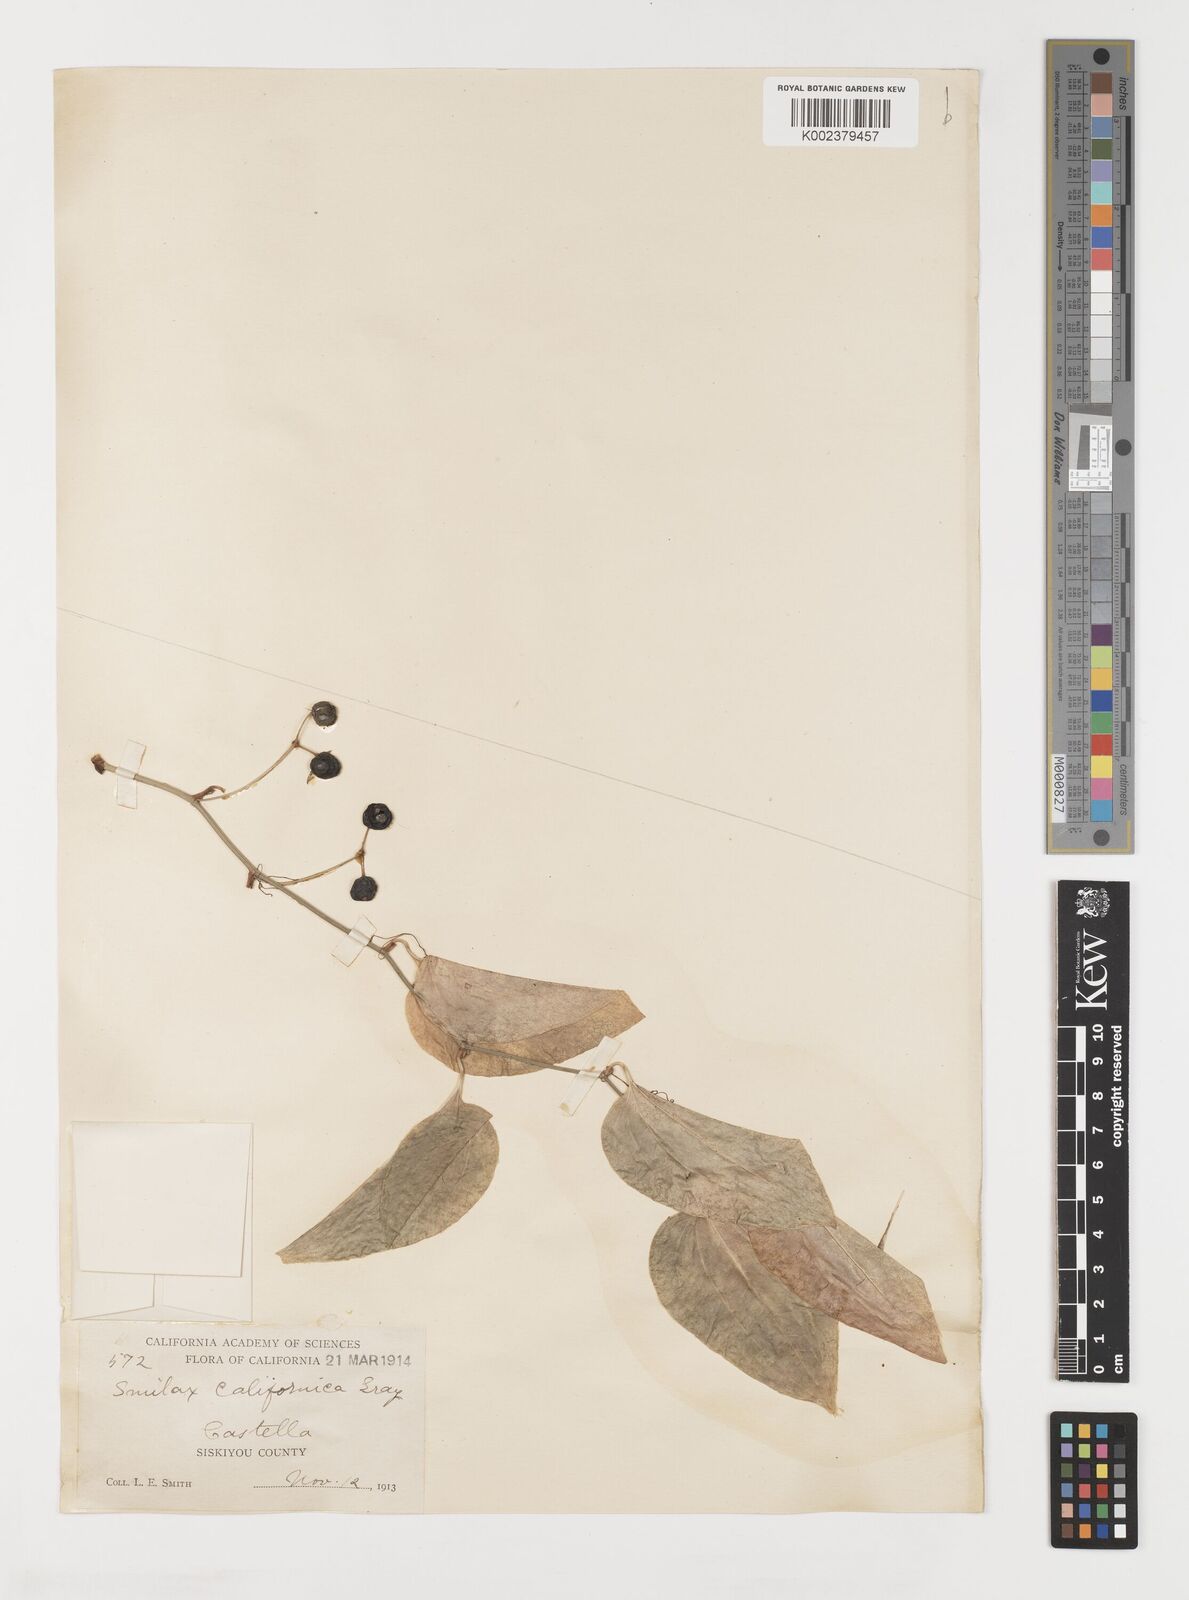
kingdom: Plantae
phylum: Tracheophyta
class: Liliopsida
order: Liliales
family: Smilacaceae
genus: Smilax
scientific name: Smilax californica
